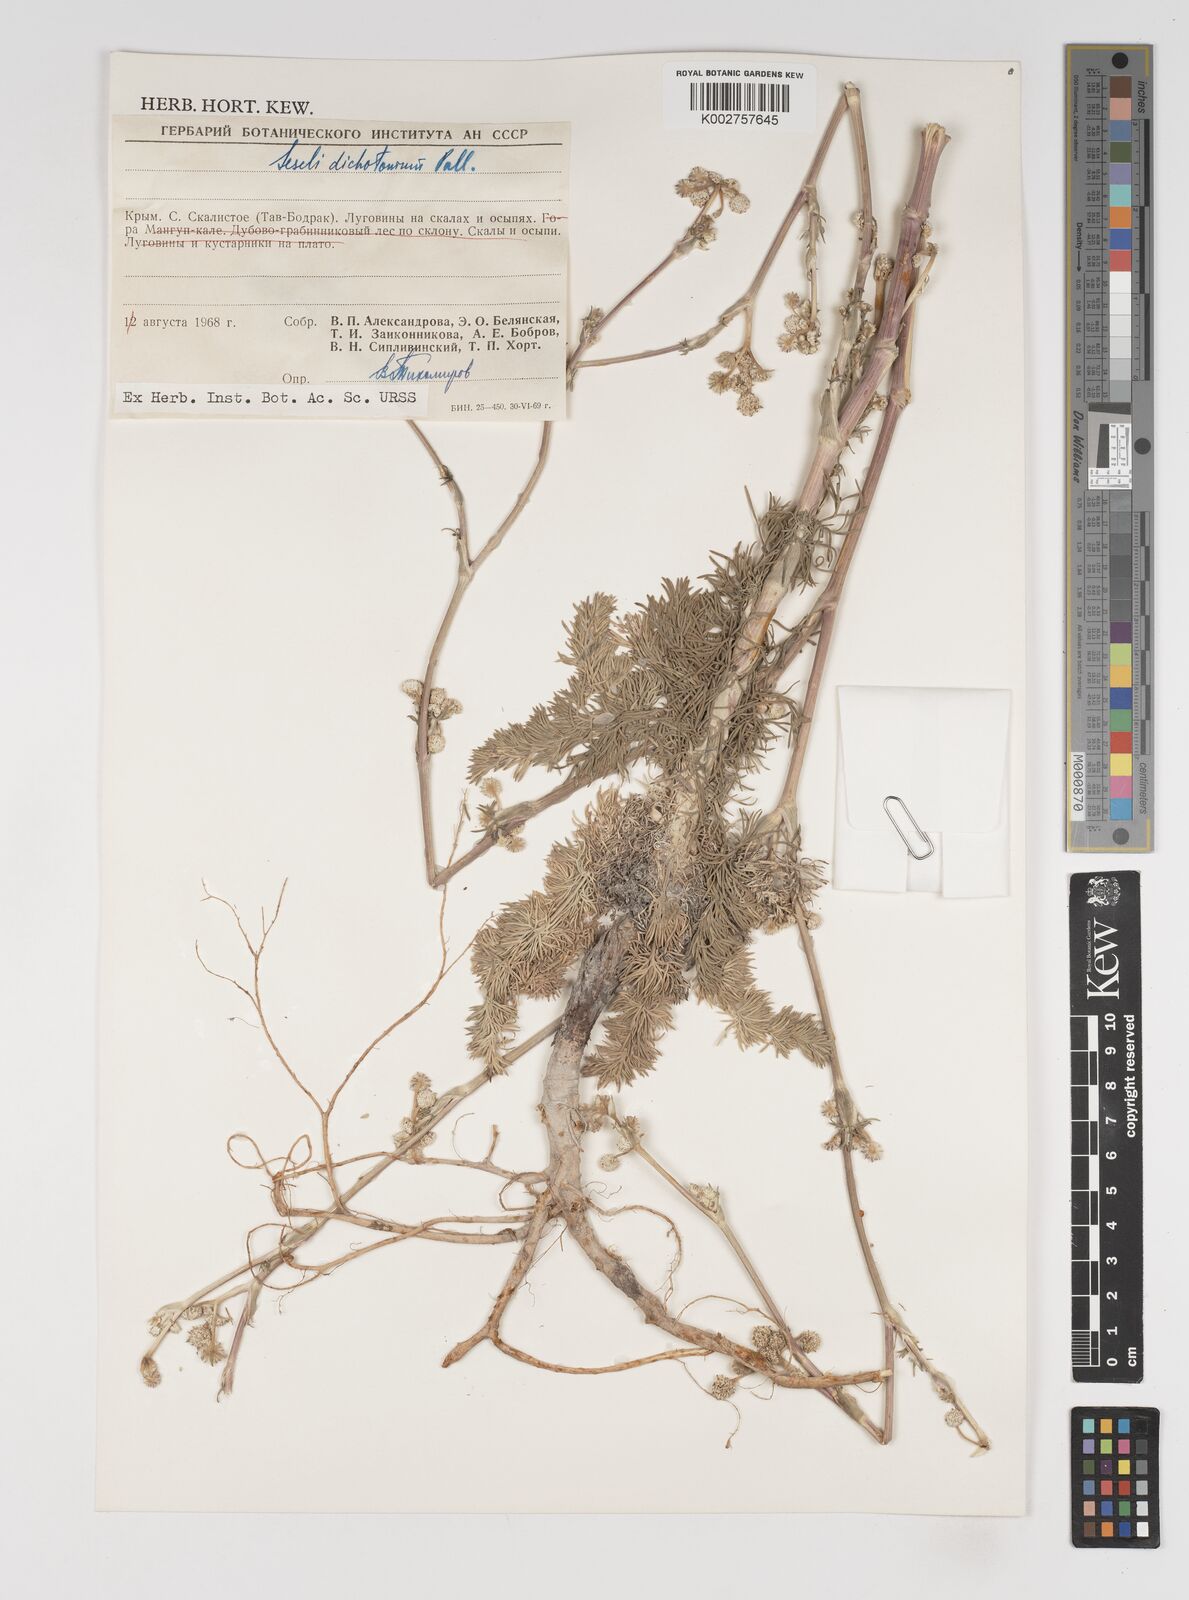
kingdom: Plantae
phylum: Tracheophyta
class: Magnoliopsida
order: Apiales
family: Apiaceae
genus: Hippomarathrum
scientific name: Hippomarathrum dichotomum
